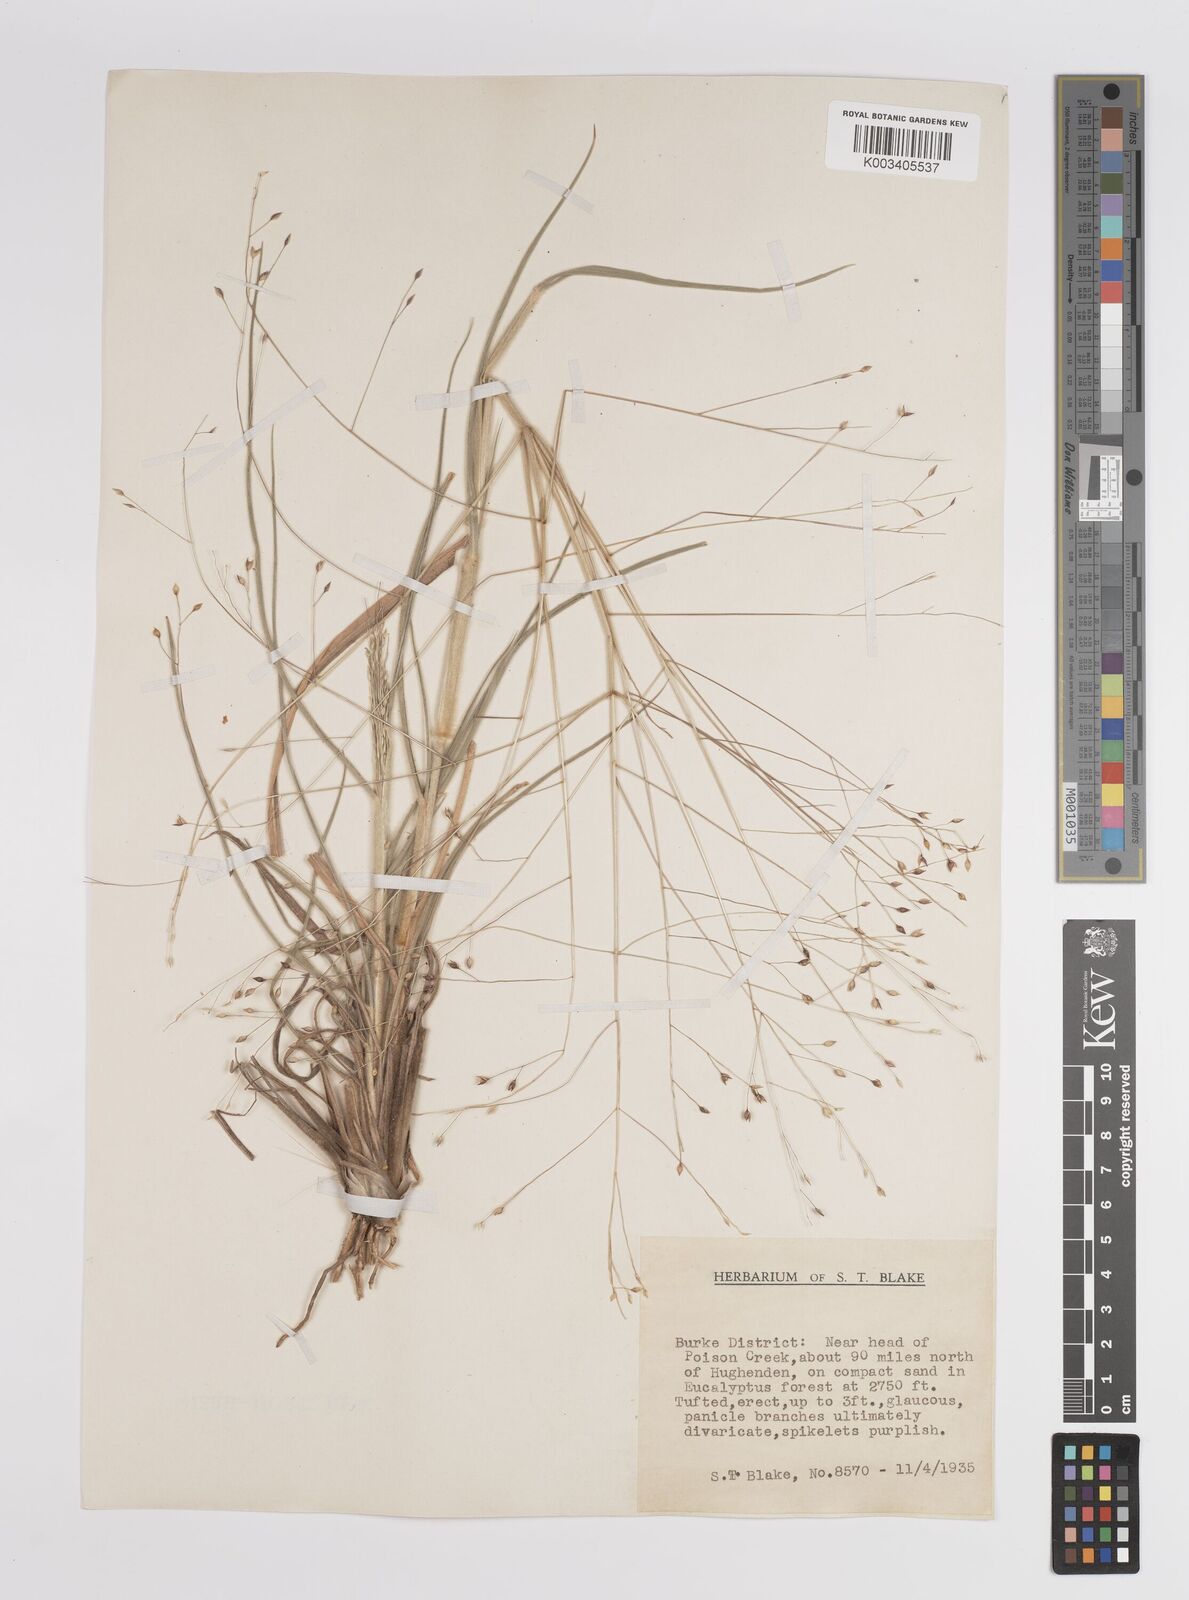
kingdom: Plantae
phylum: Tracheophyta
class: Liliopsida
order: Poales
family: Poaceae
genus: Panicum
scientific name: Panicum
